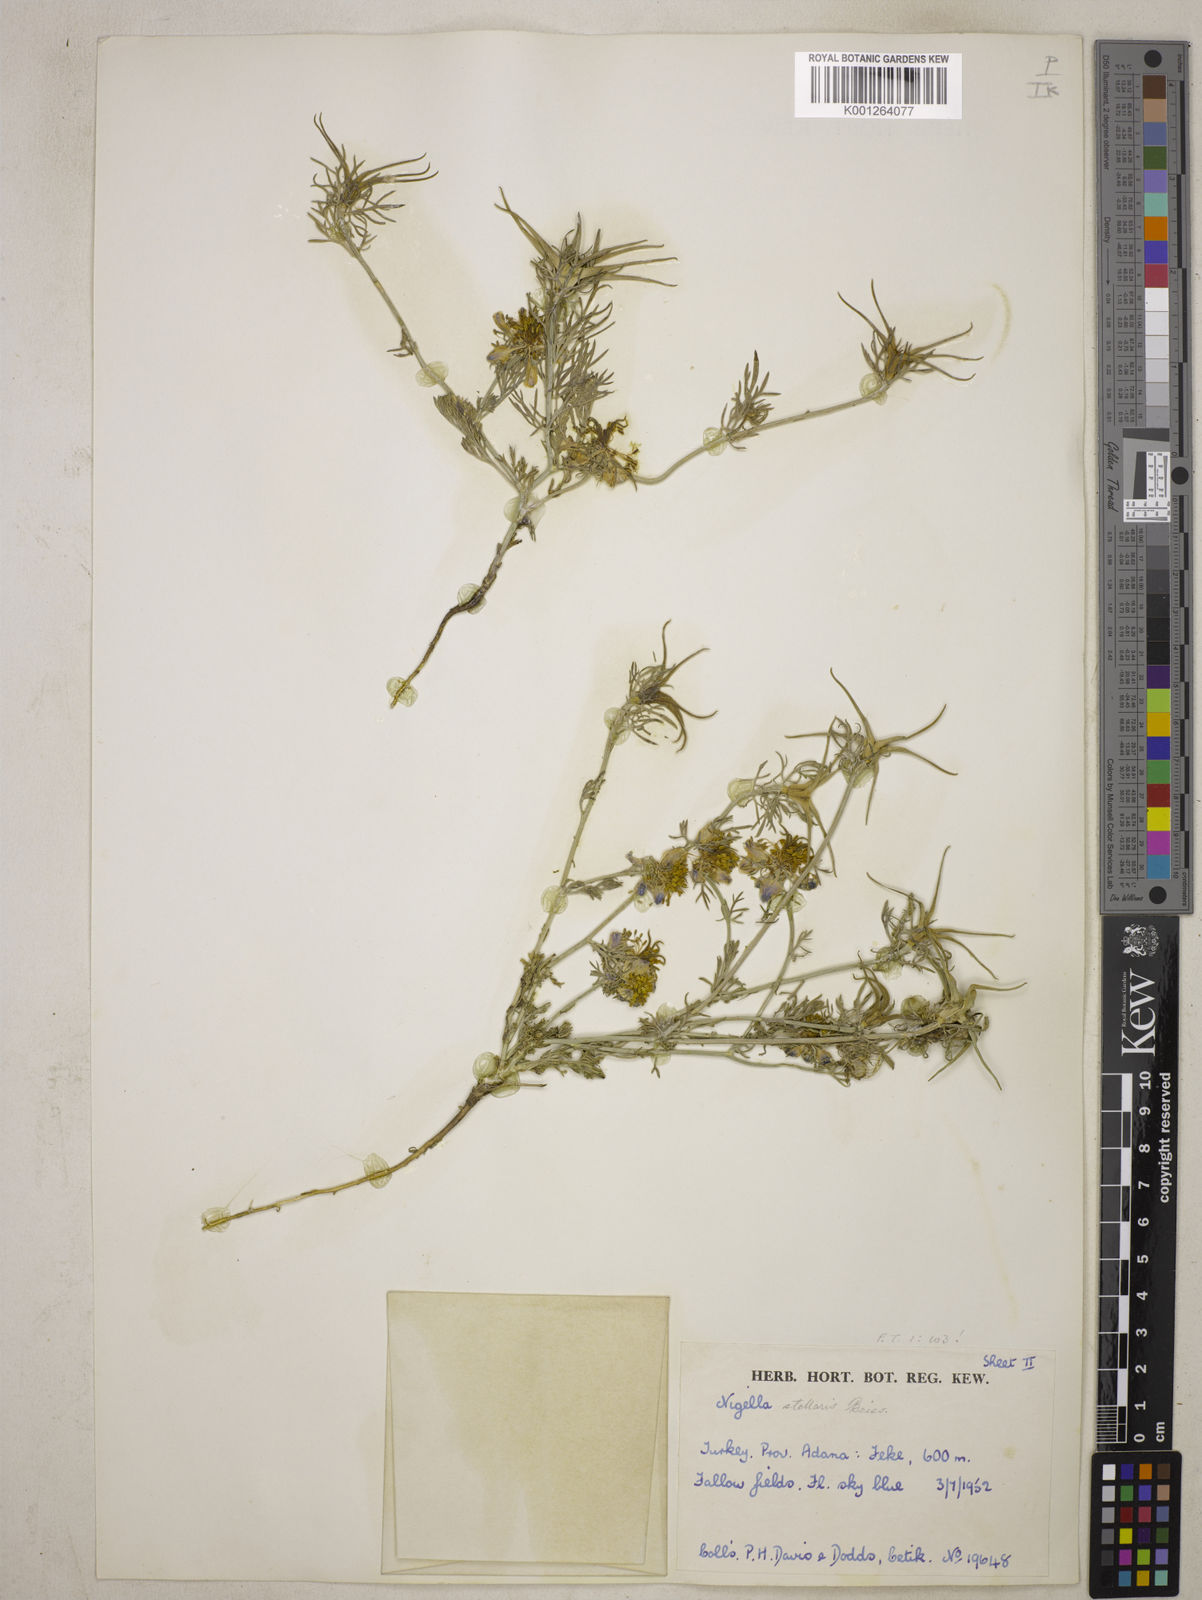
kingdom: Plantae
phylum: Tracheophyta
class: Magnoliopsida
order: Ranunculales
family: Ranunculaceae
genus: Nigella
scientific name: Nigella stellaris
